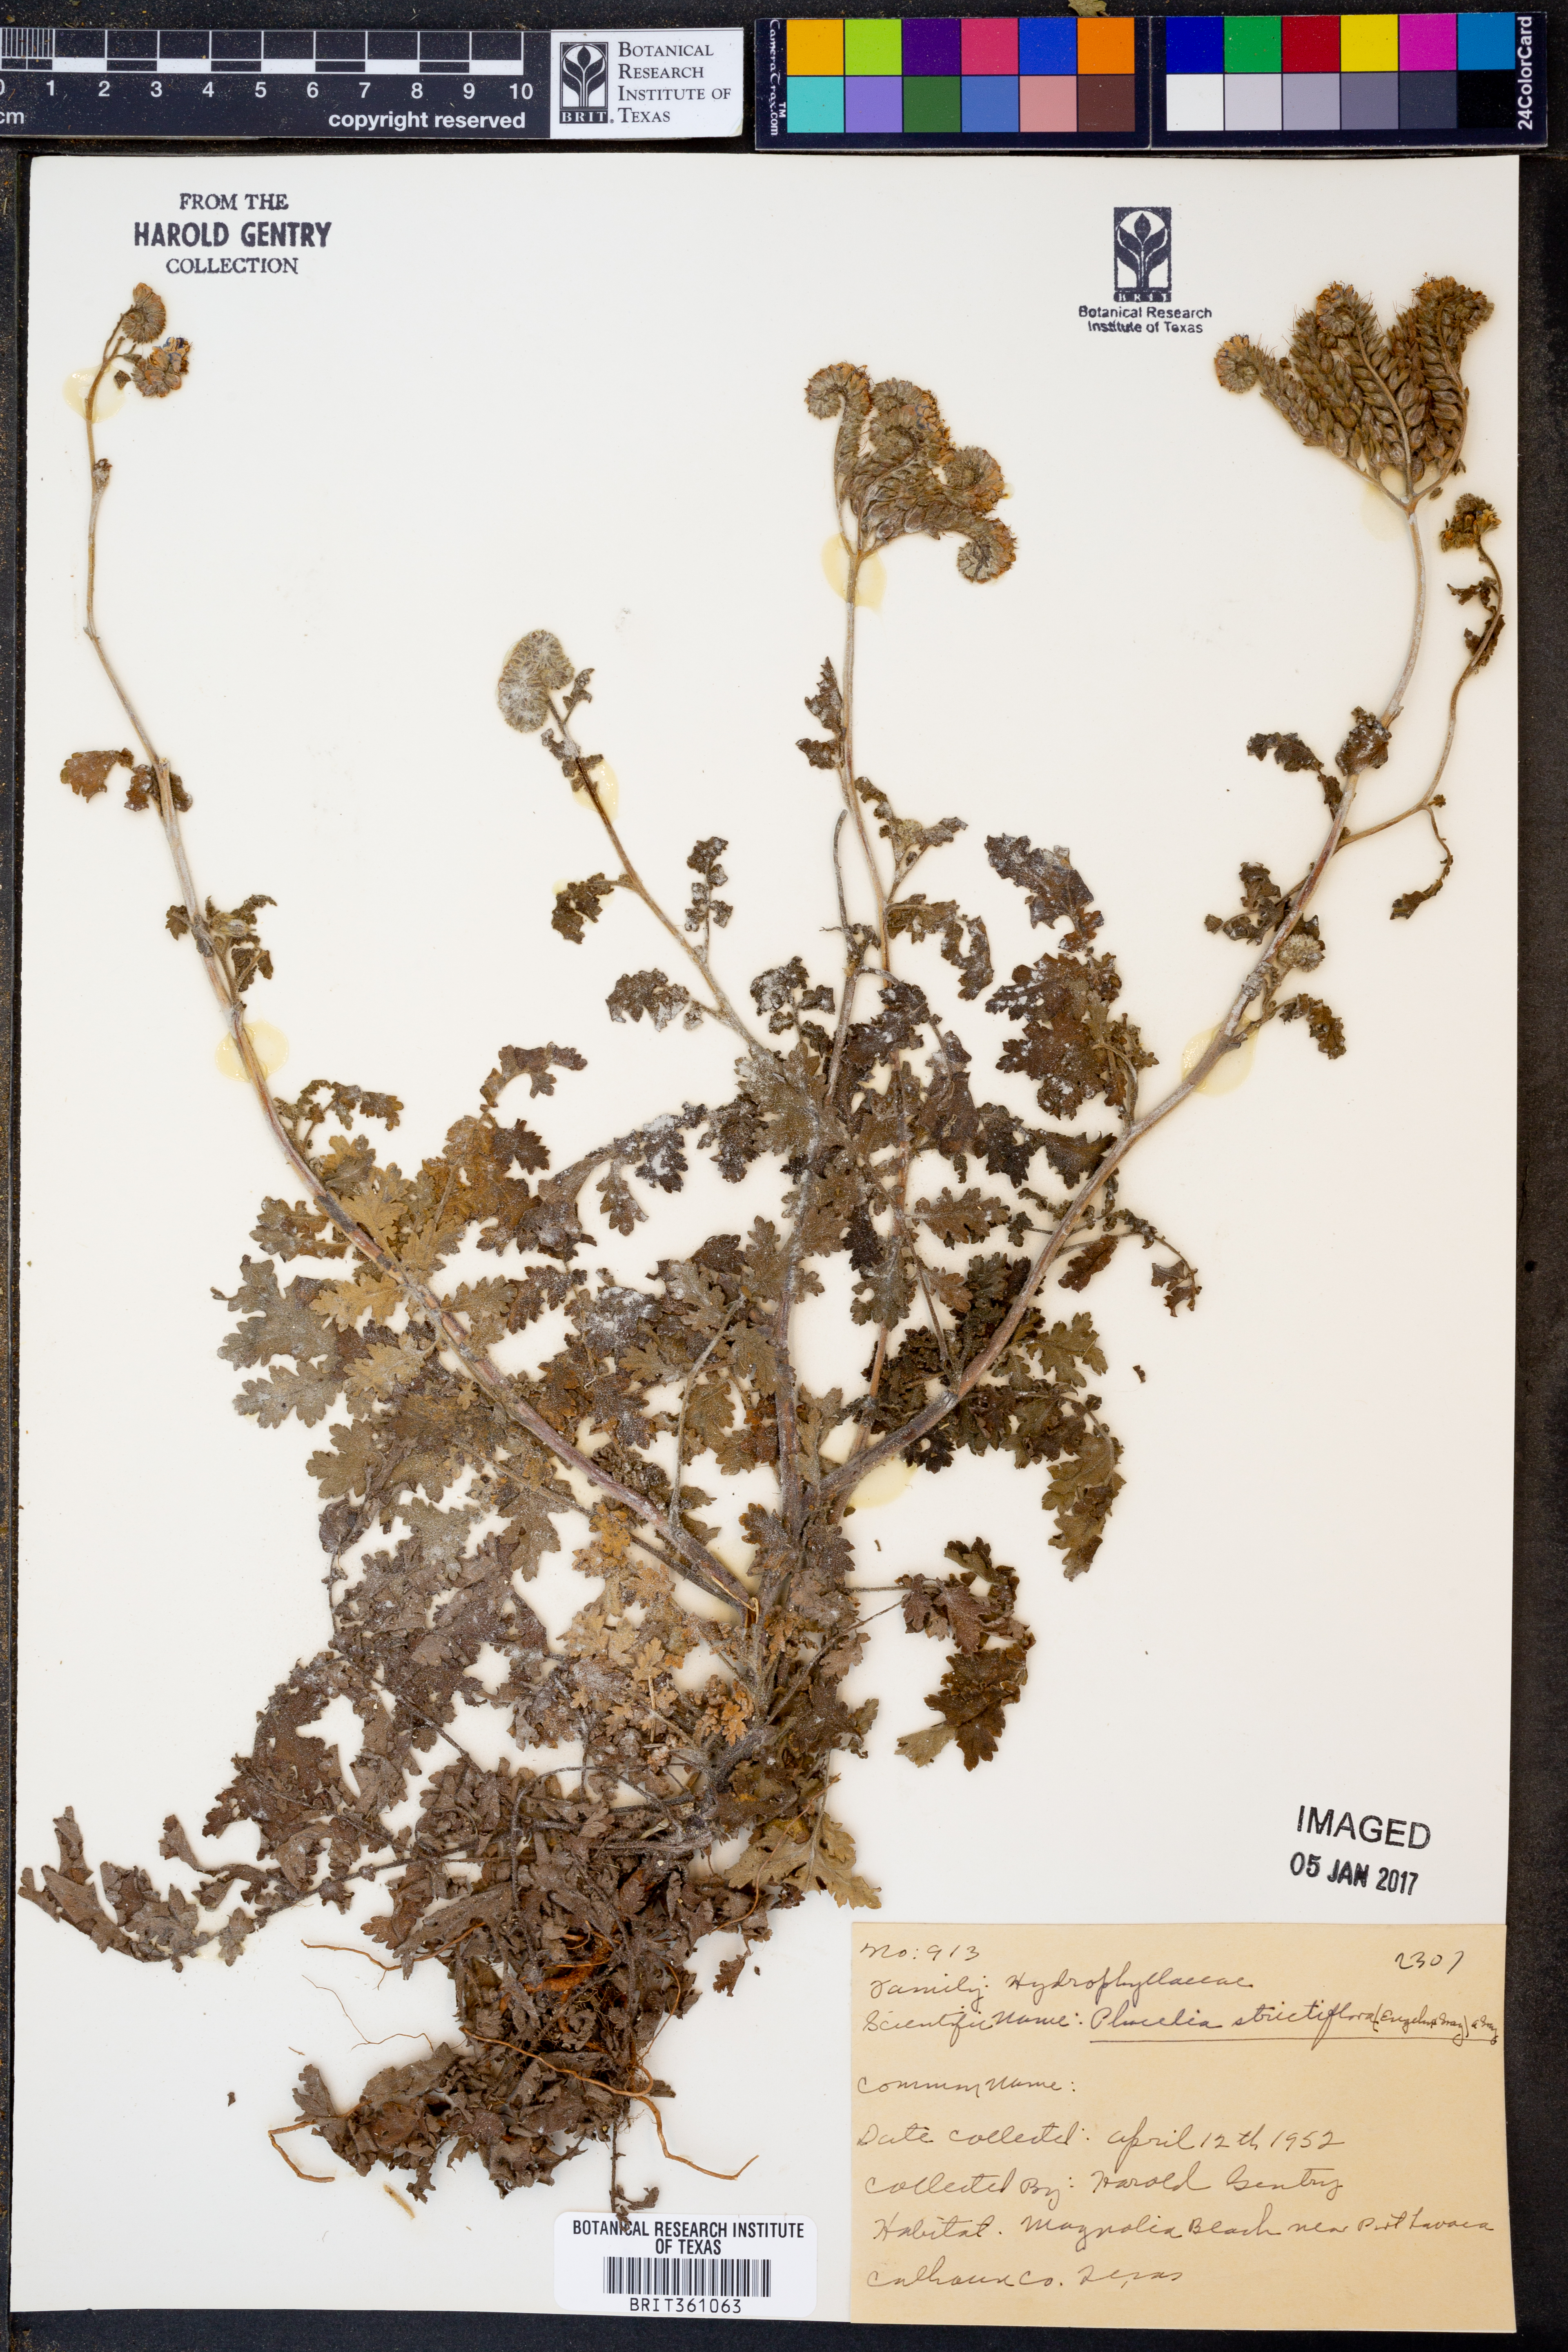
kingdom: Plantae
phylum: Tracheophyta
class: Magnoliopsida
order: Boraginales
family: Hydrophyllaceae
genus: Phacelia
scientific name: Phacelia strictiflora
